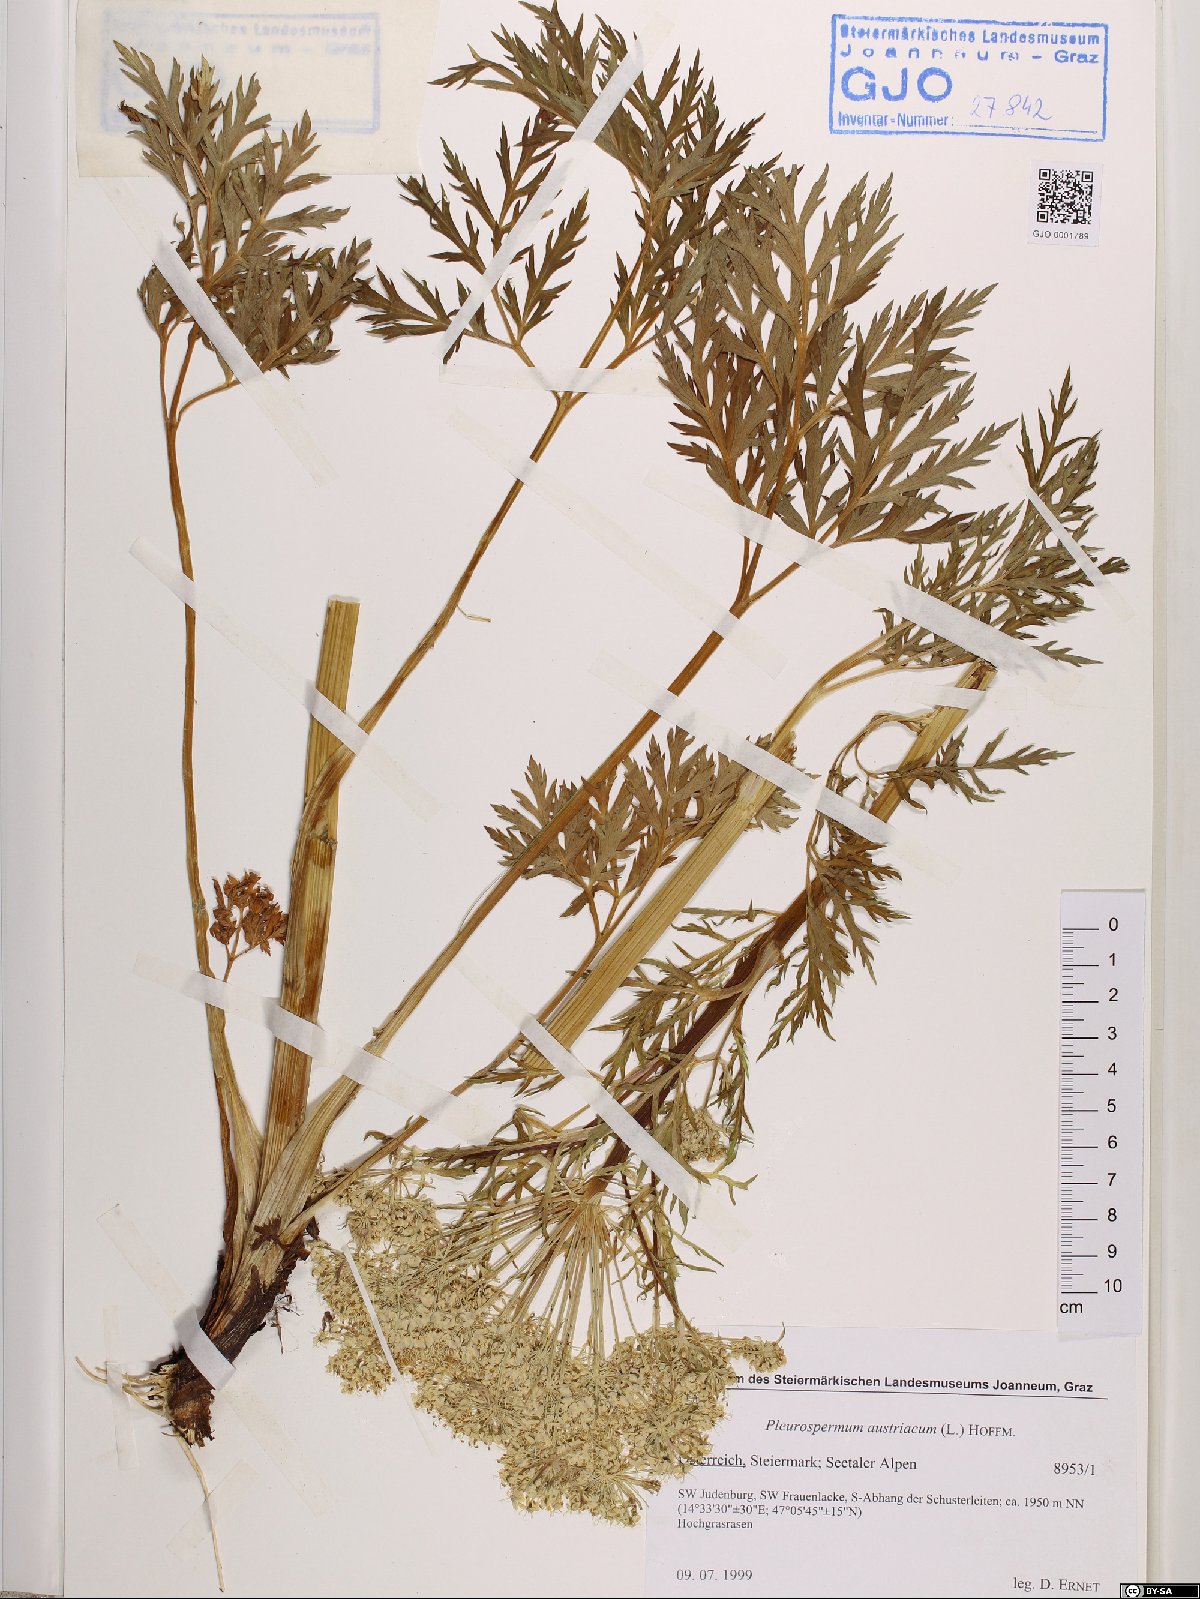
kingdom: Plantae
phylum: Tracheophyta
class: Magnoliopsida
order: Apiales
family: Apiaceae
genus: Pleurospermum
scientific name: Pleurospermum austriacum
